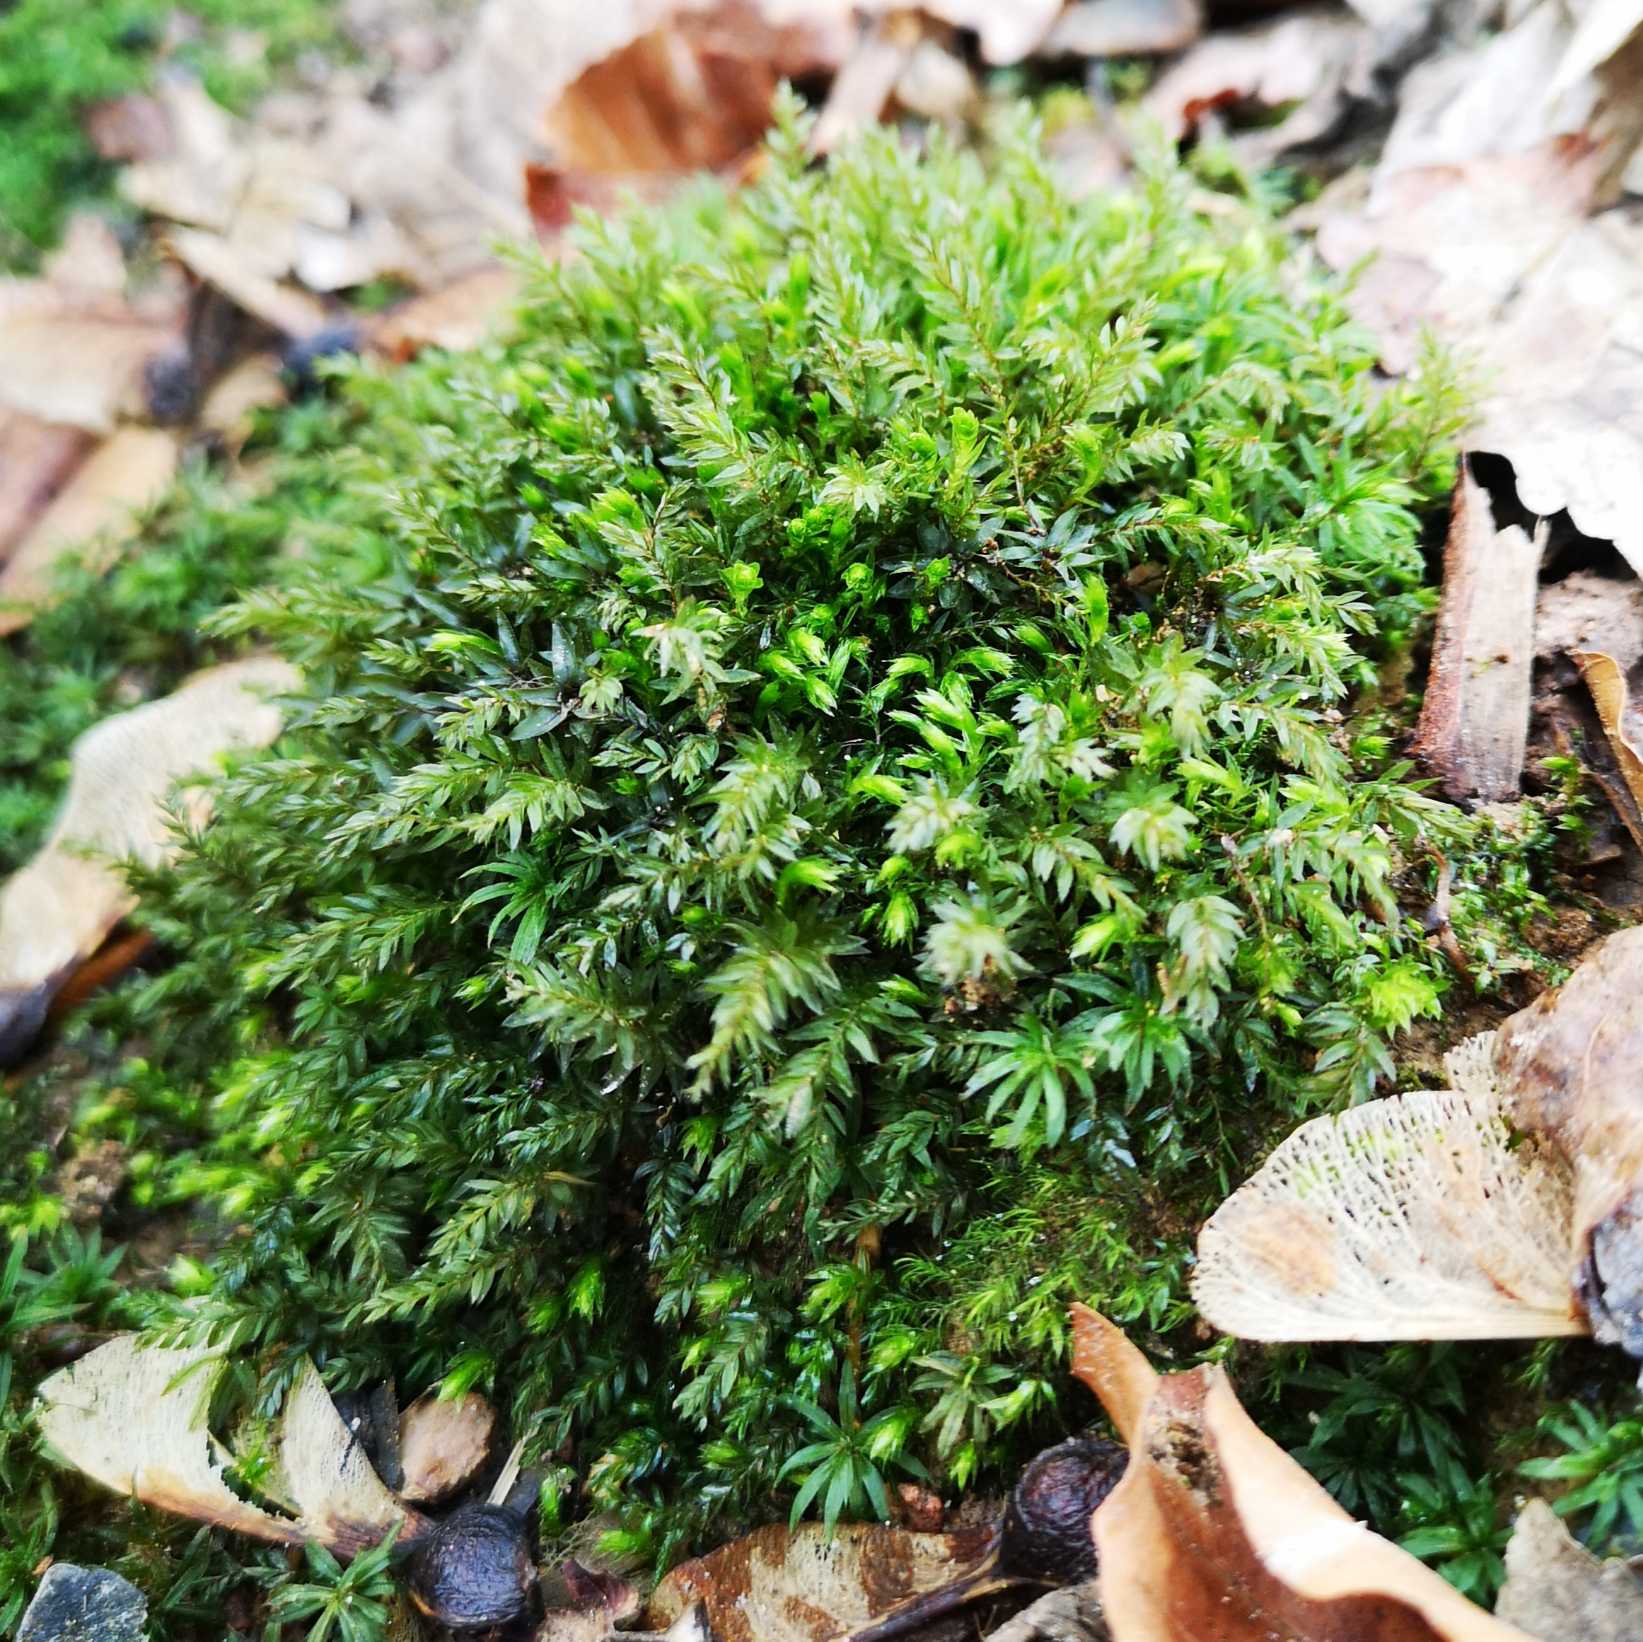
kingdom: Plantae
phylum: Bryophyta
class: Bryopsida
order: Bryales
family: Mniaceae
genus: Mnium
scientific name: Mnium hornum
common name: Brunfiltet stjernemos
